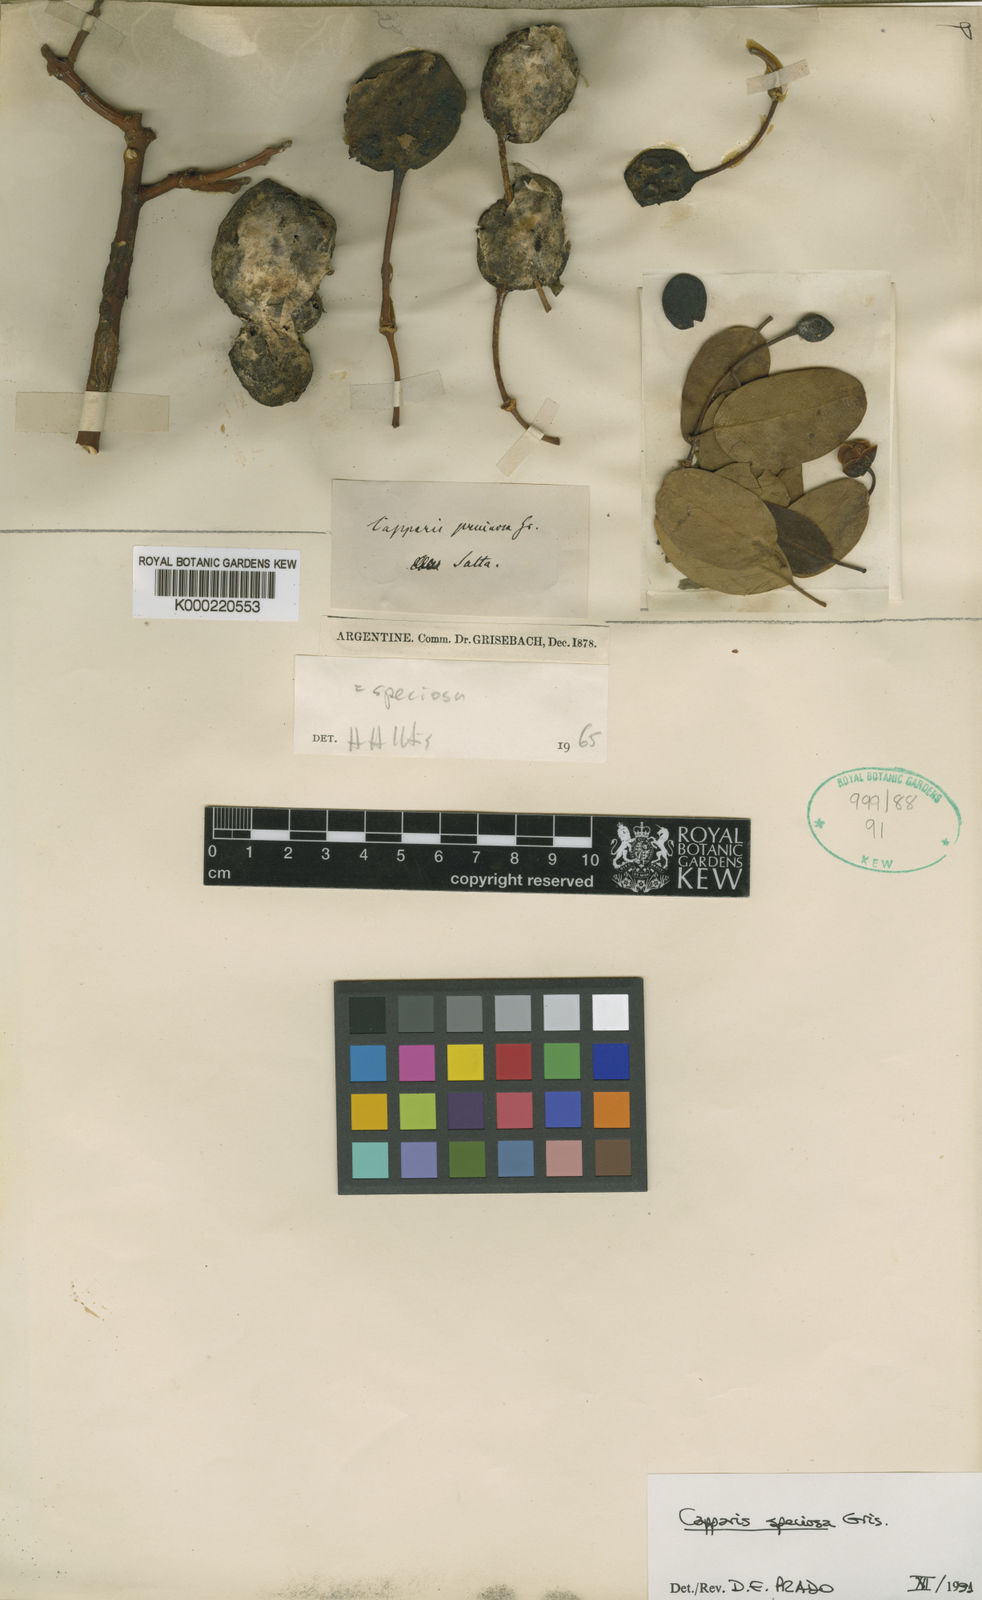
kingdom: Plantae
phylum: Tracheophyta
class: Magnoliopsida
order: Brassicales
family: Capparaceae
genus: Anisocapparis
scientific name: Anisocapparis speciosa
